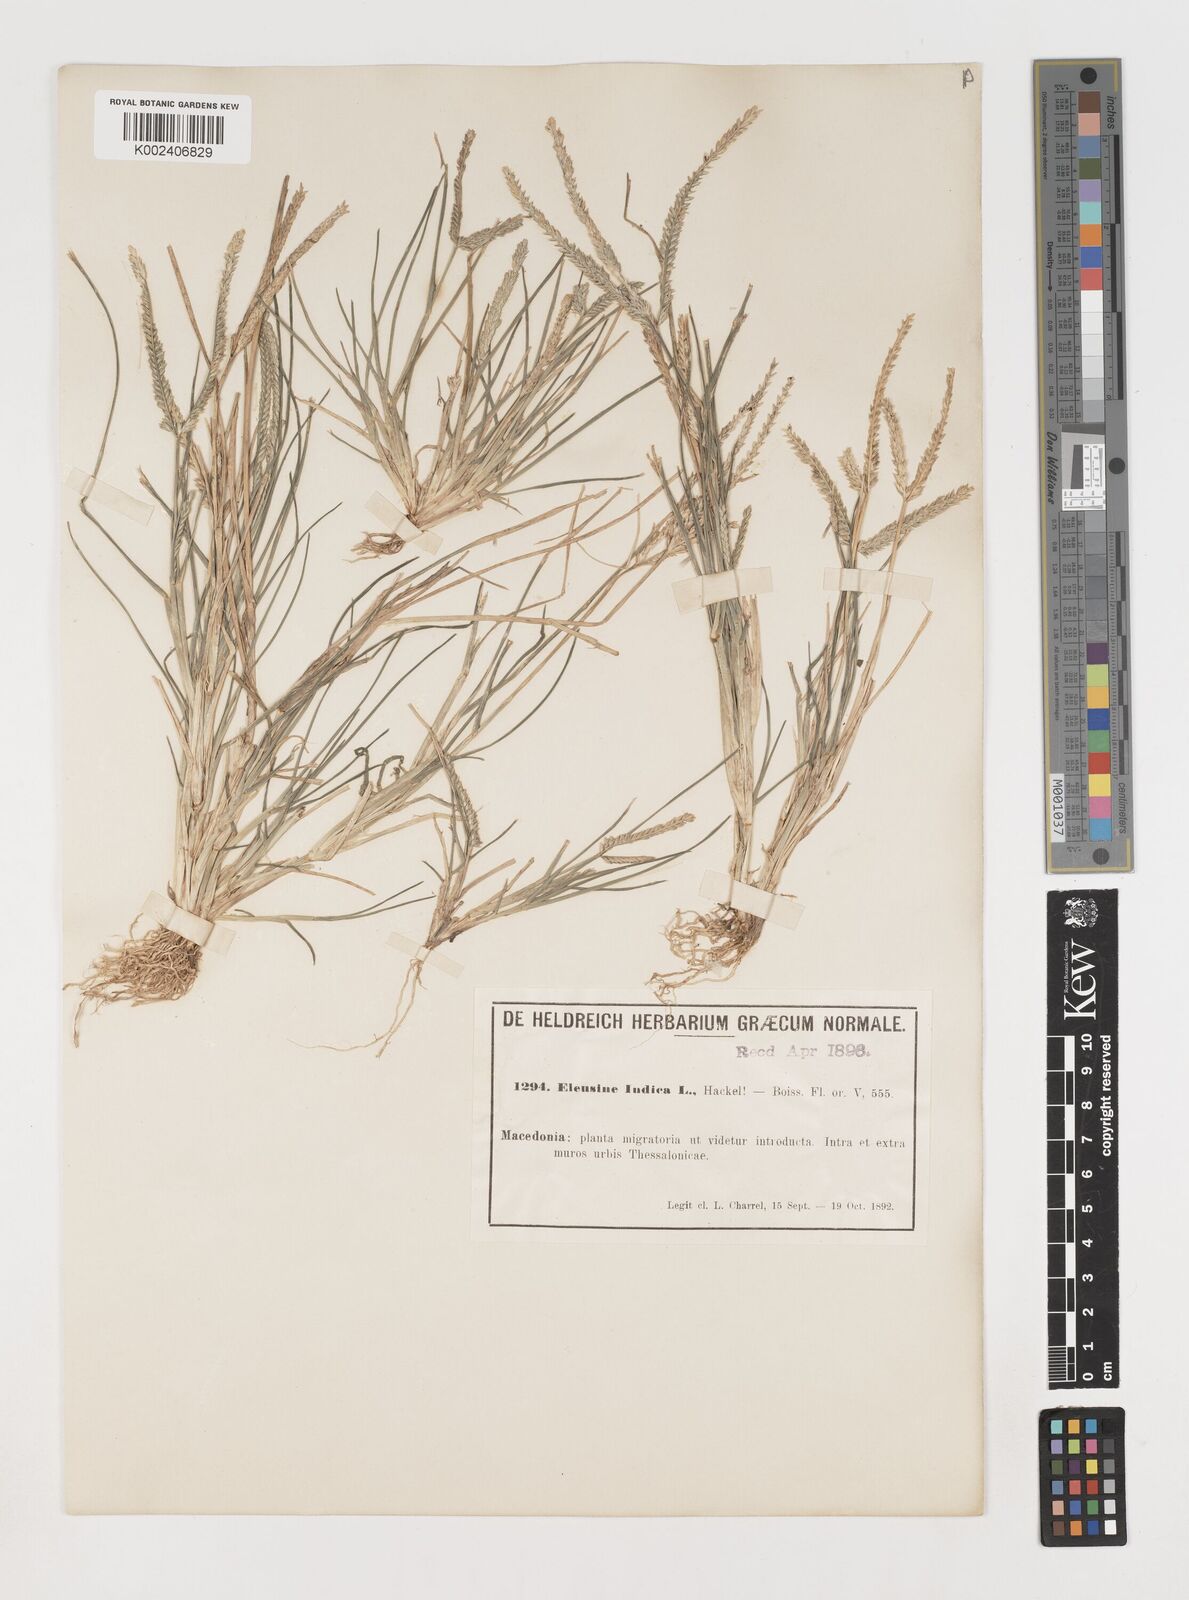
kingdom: Plantae
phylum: Tracheophyta
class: Liliopsida
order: Poales
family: Poaceae
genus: Eleusine
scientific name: Eleusine indica
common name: Yard-grass
